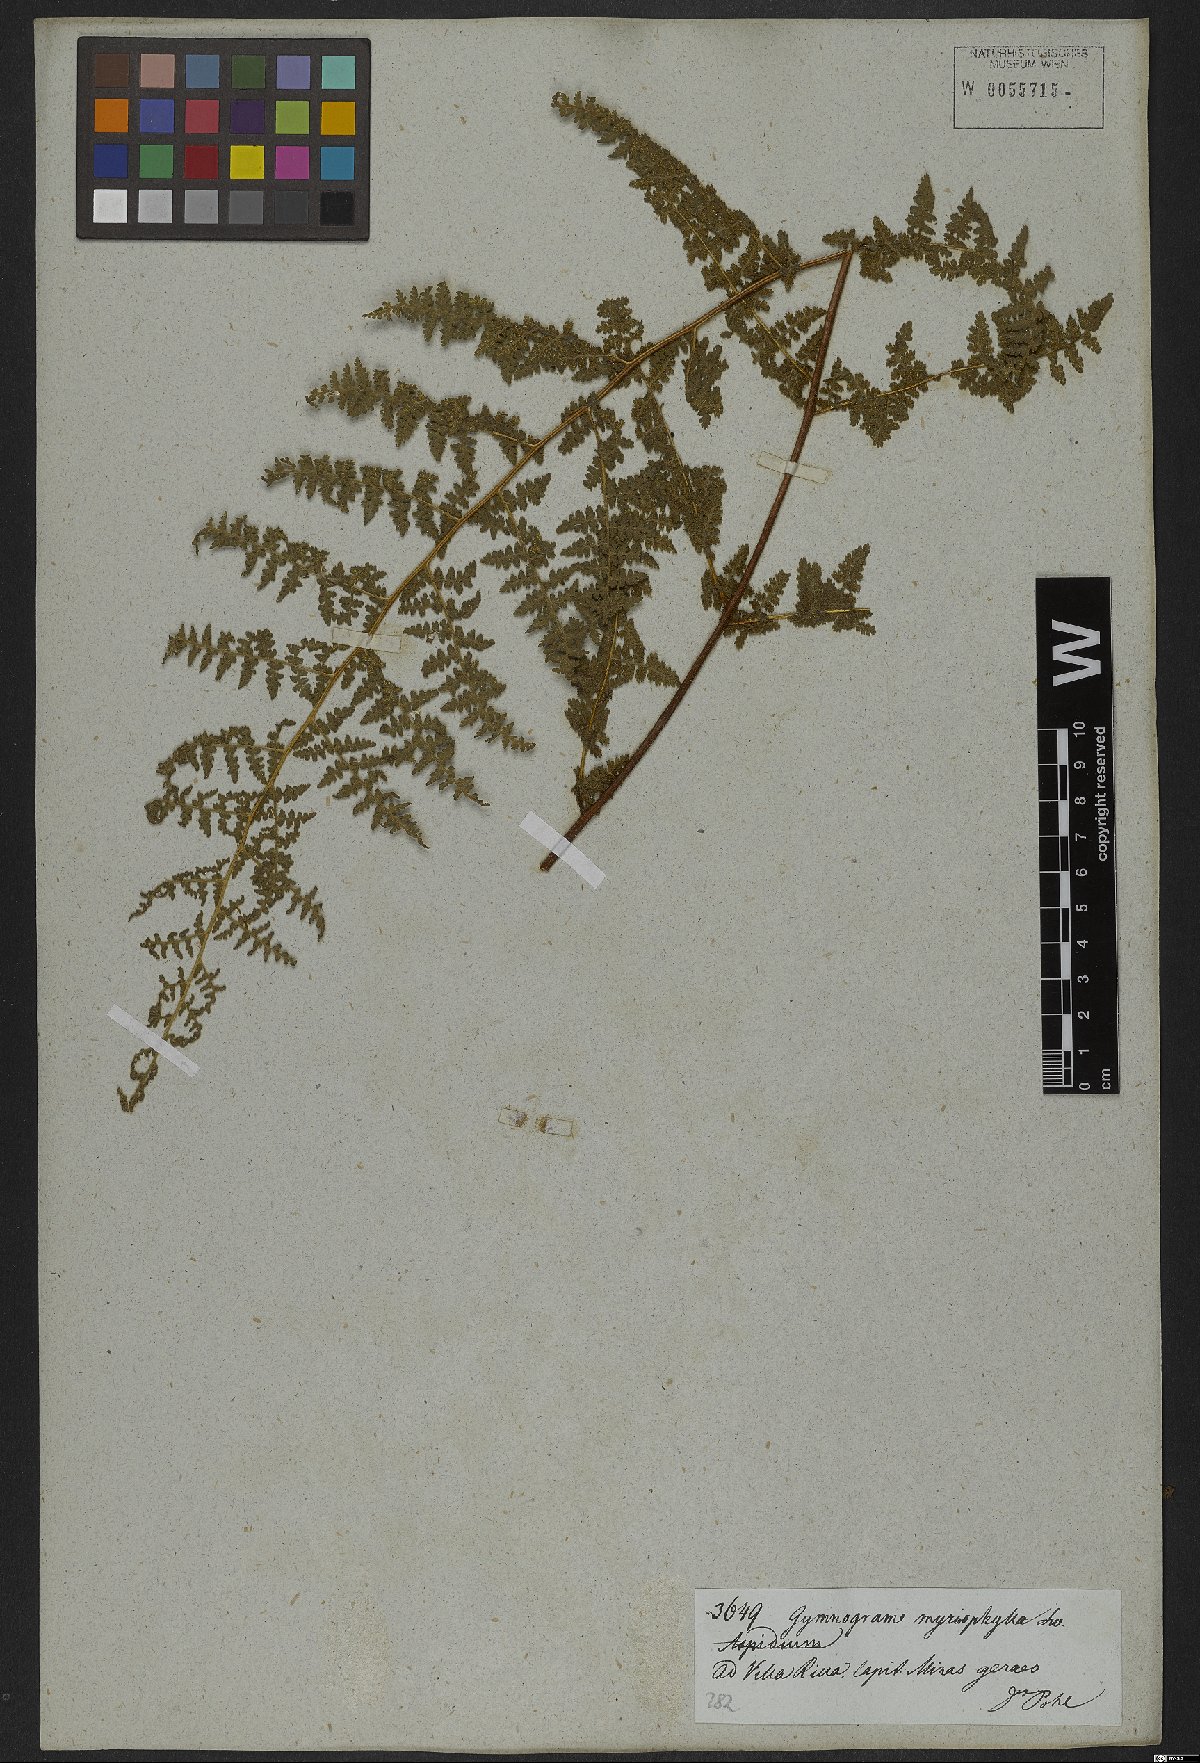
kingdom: Plantae
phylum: Tracheophyta
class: Polypodiopsida
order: Polypodiales
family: Pteridaceae
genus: Tryonia
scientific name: Tryonia myriophylla
